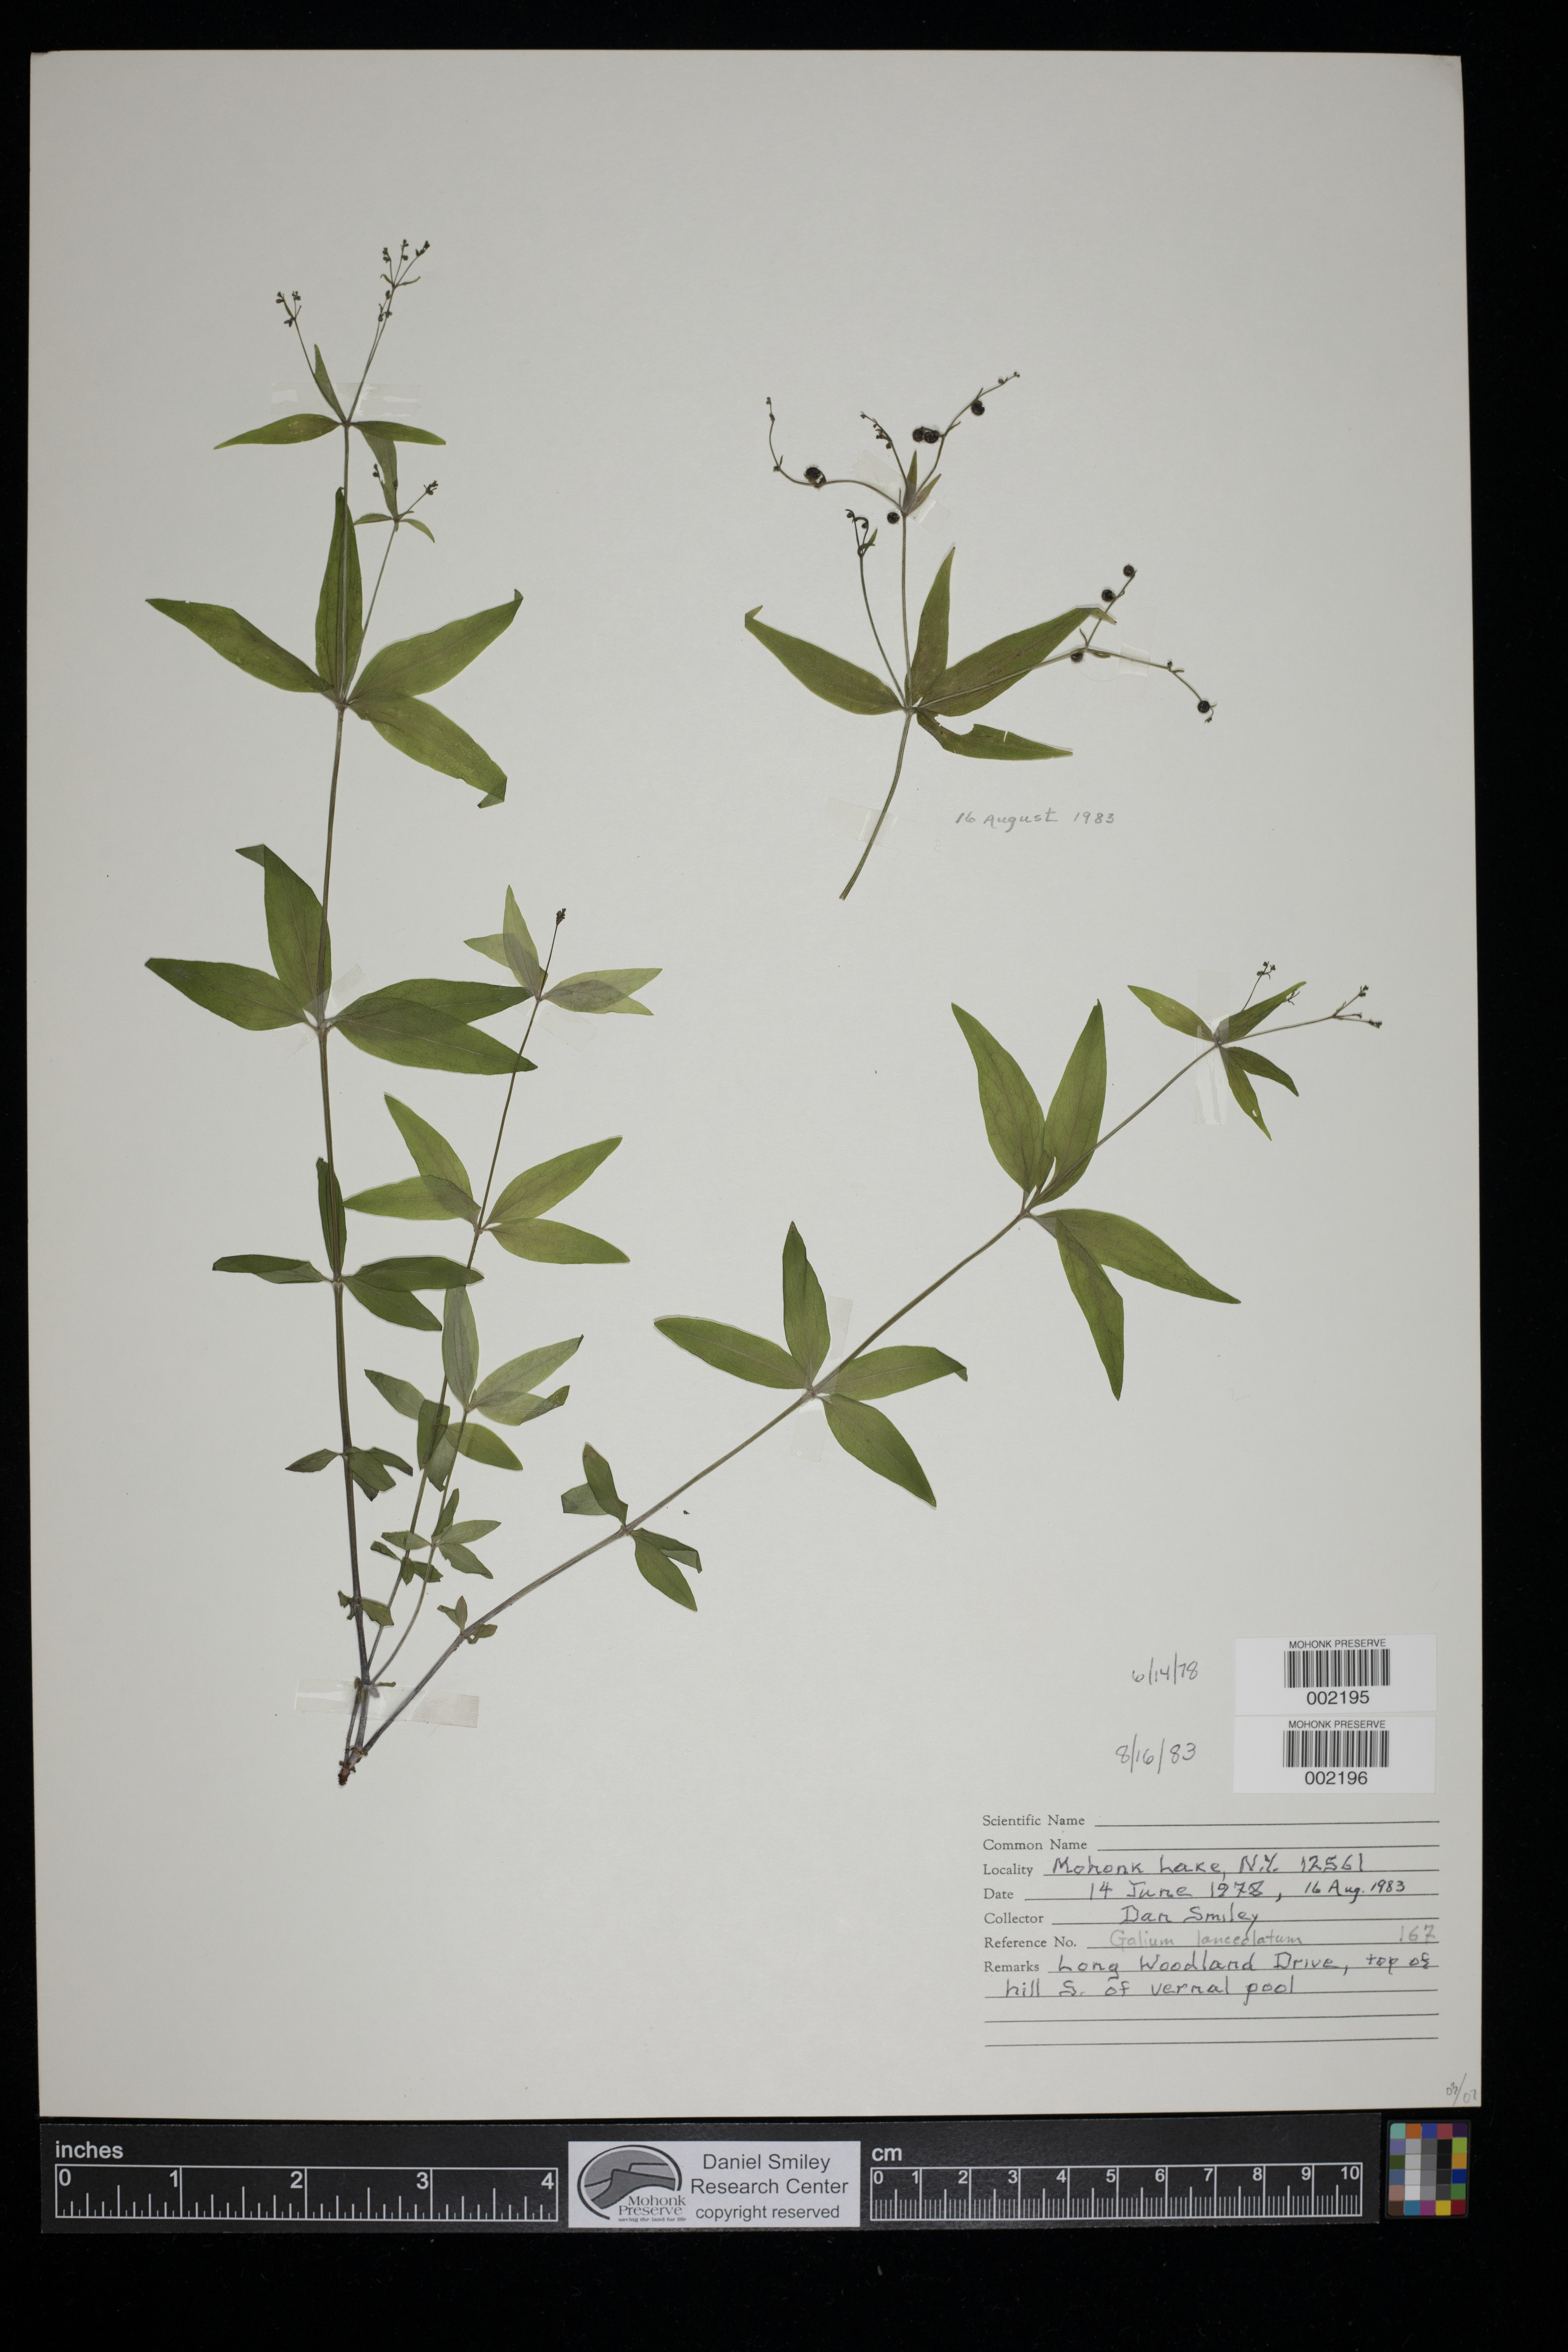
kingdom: Plantae
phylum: Tracheophyta
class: Magnoliopsida
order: Gentianales
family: Rubiaceae
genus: Galium
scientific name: Galium lanceolatum
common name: Lance-leaved wild licorice
